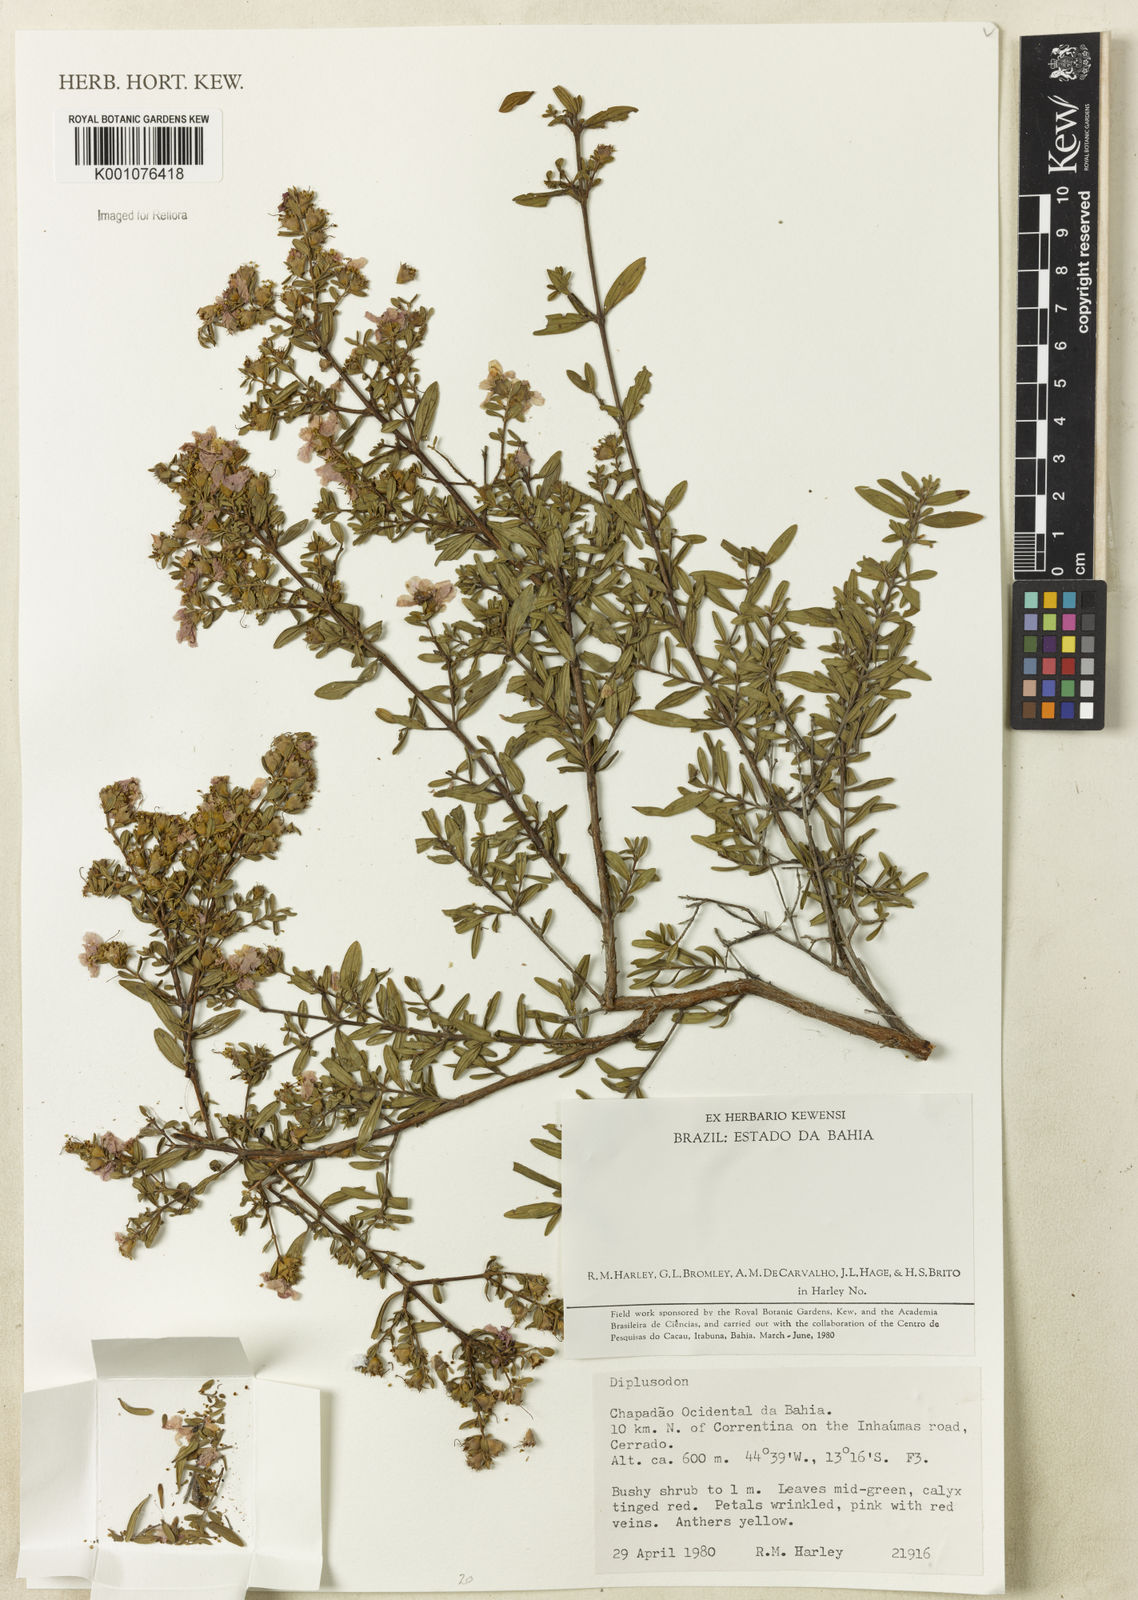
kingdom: Plantae
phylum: Tracheophyta
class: Magnoliopsida
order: Myrtales
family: Lythraceae
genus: Diplusodon
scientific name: Diplusodon
